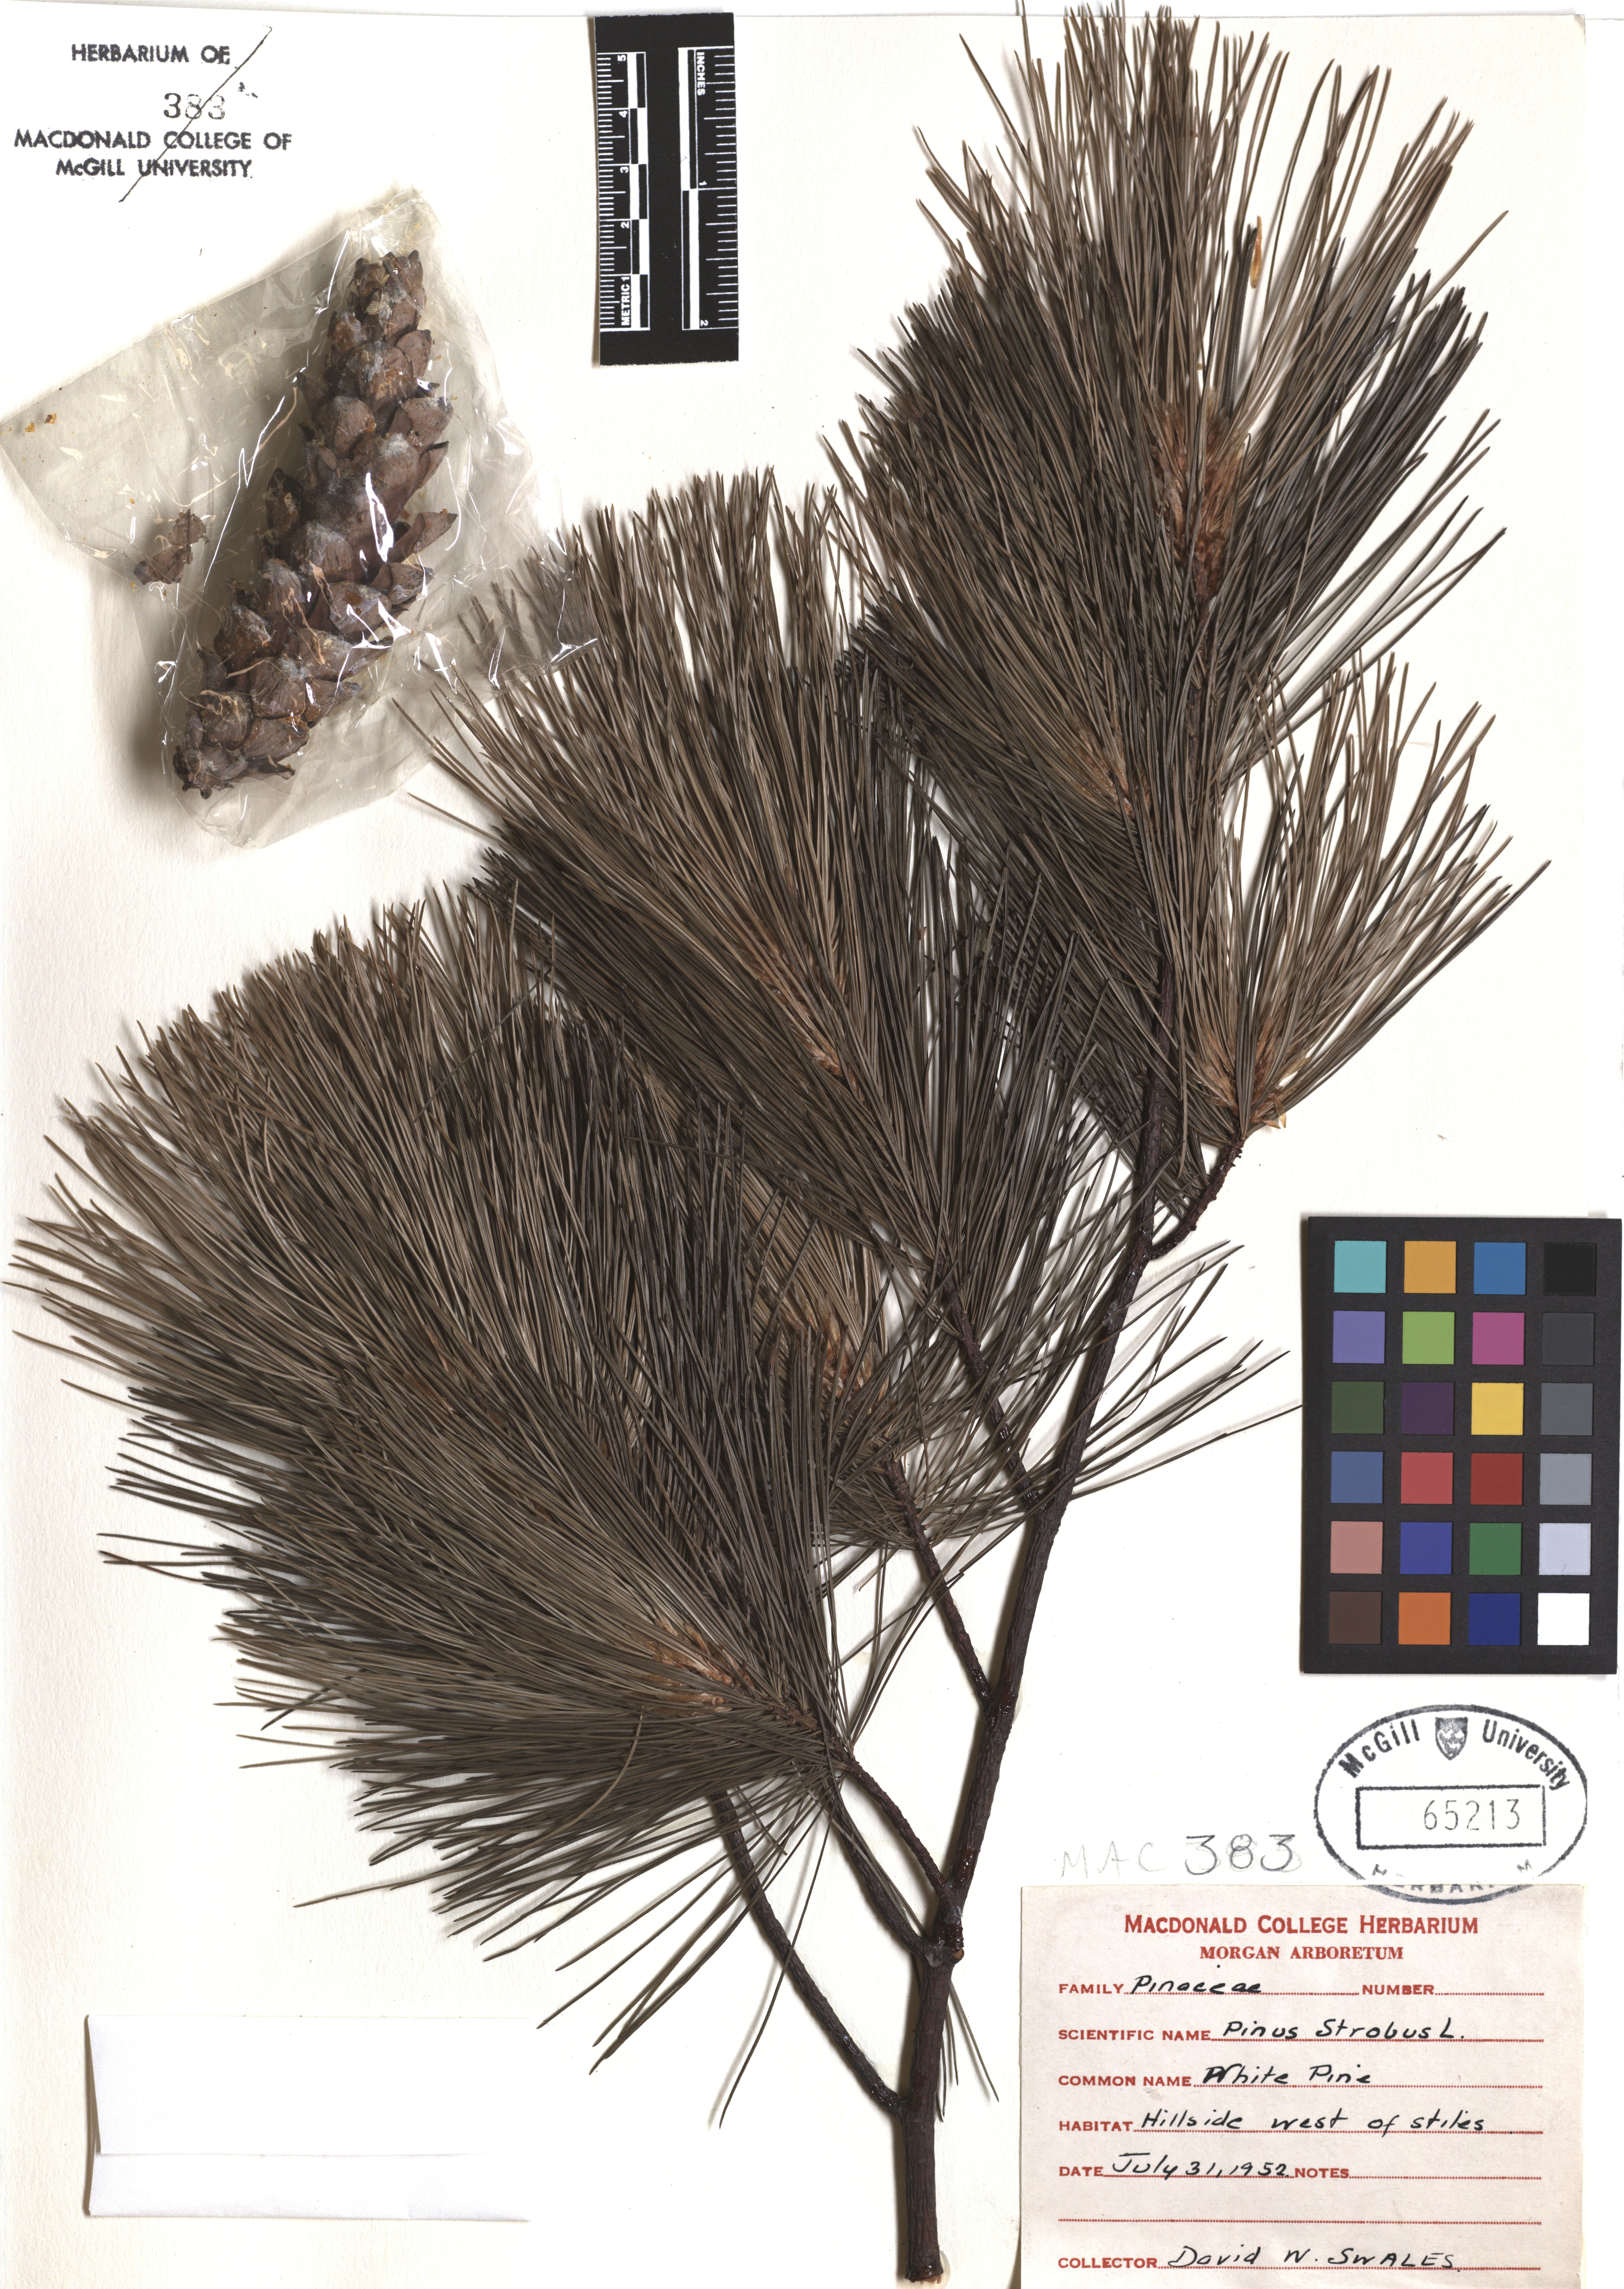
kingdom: Plantae
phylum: Tracheophyta
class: Pinopsida
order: Pinales
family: Pinaceae
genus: Pinus
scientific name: Pinus strobus
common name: Weymouth pine
